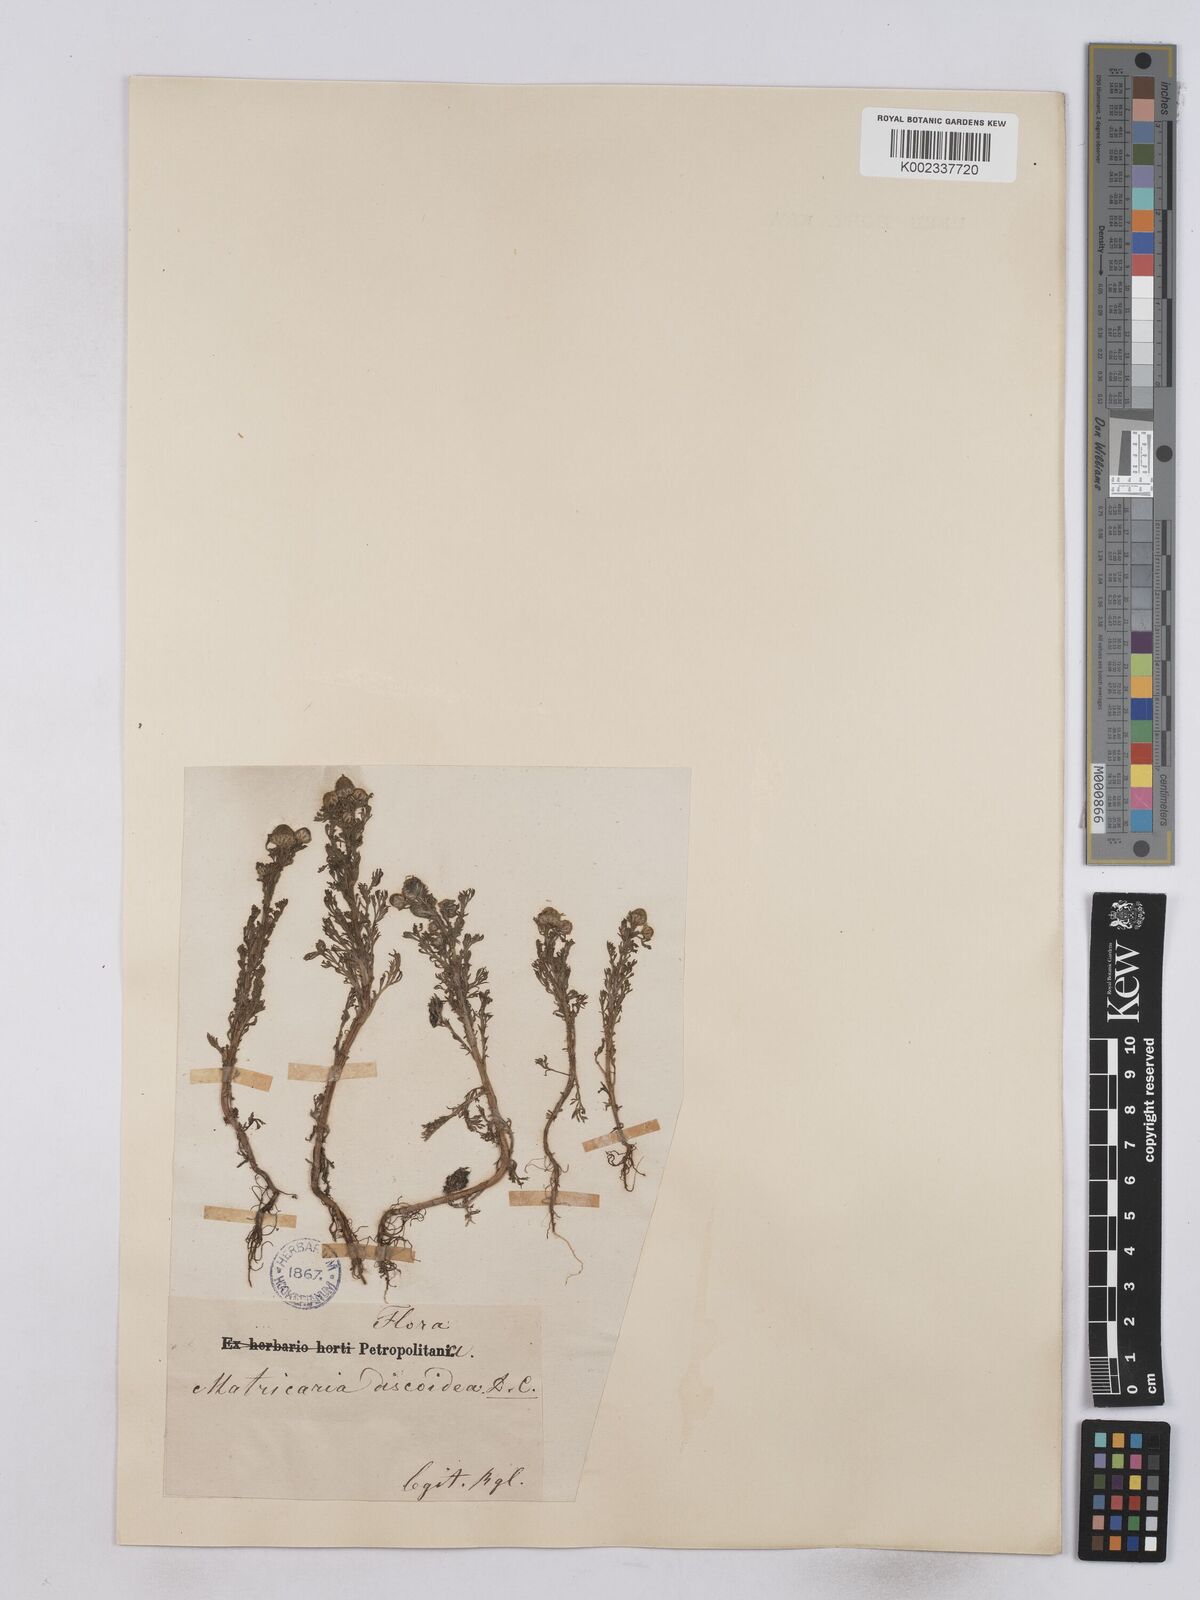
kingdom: Plantae
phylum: Tracheophyta
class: Magnoliopsida
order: Asterales
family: Asteraceae
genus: Matricaria
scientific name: Matricaria discoidea
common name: Disc mayweed
